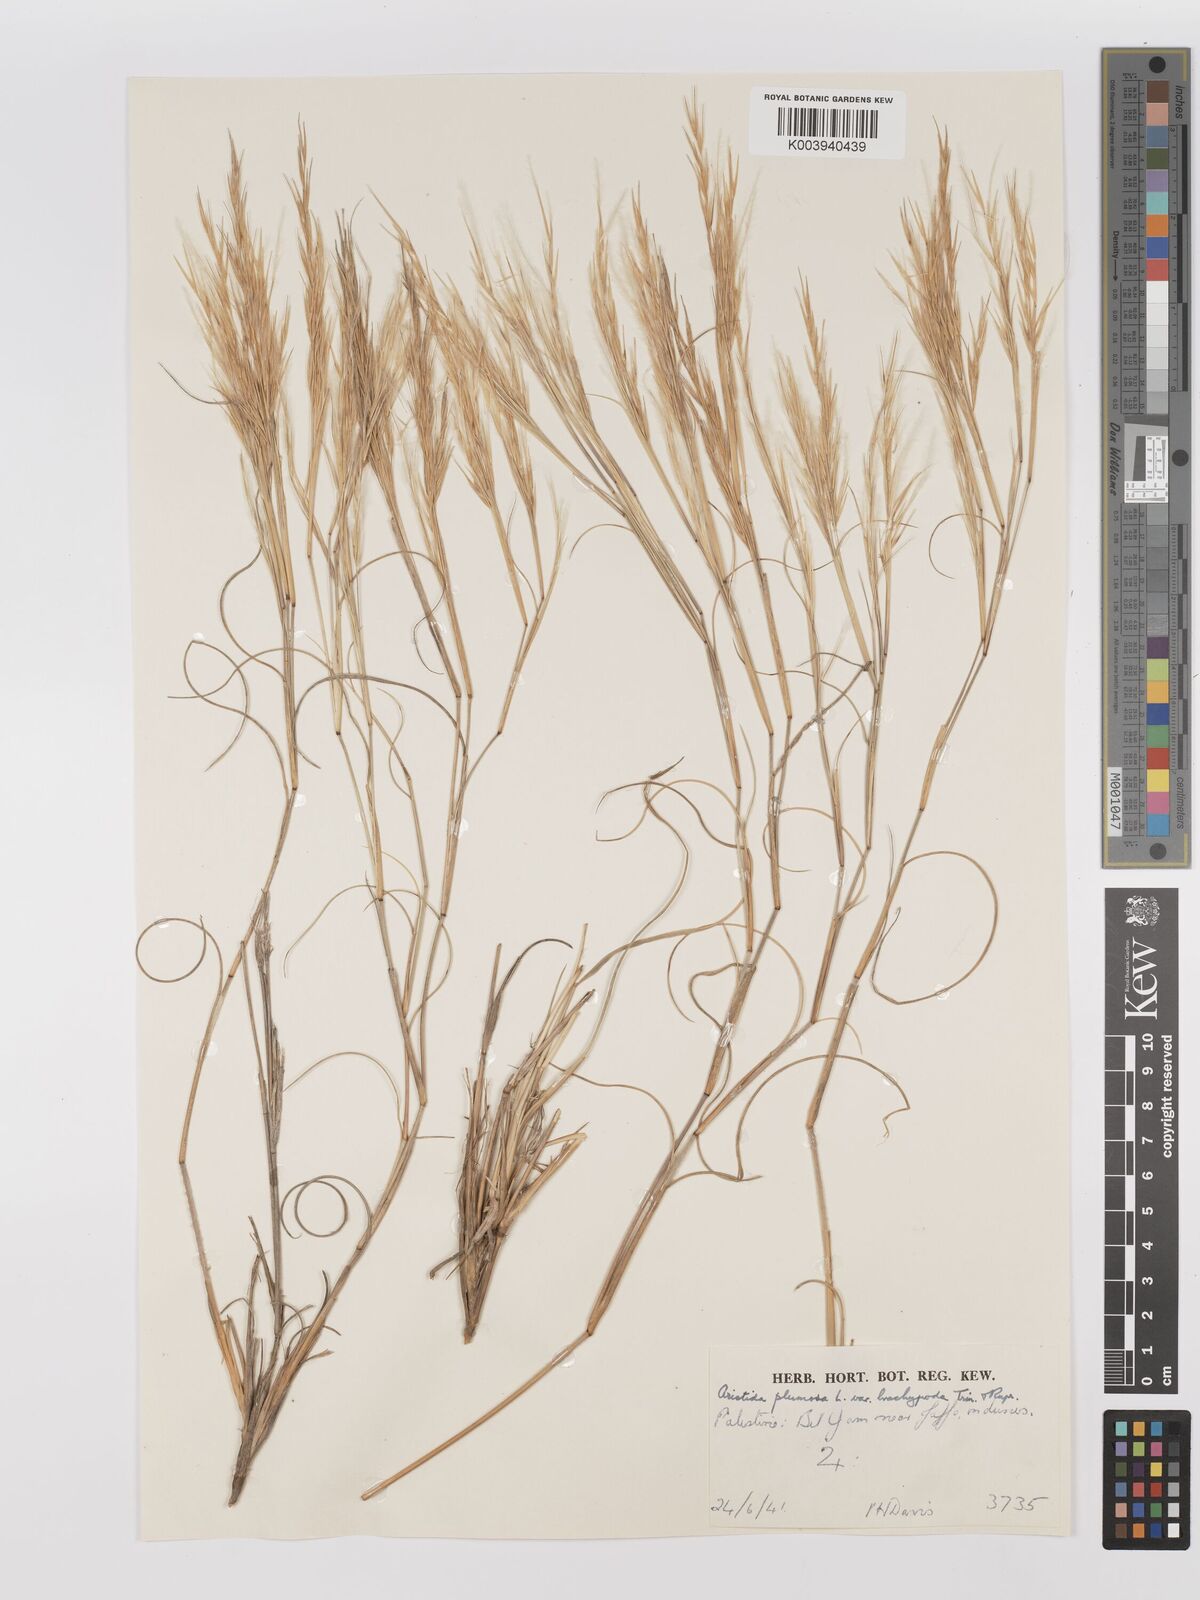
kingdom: Plantae
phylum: Tracheophyta
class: Liliopsida
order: Poales
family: Poaceae
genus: Stipagrostis
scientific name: Stipagrostis plumosa
